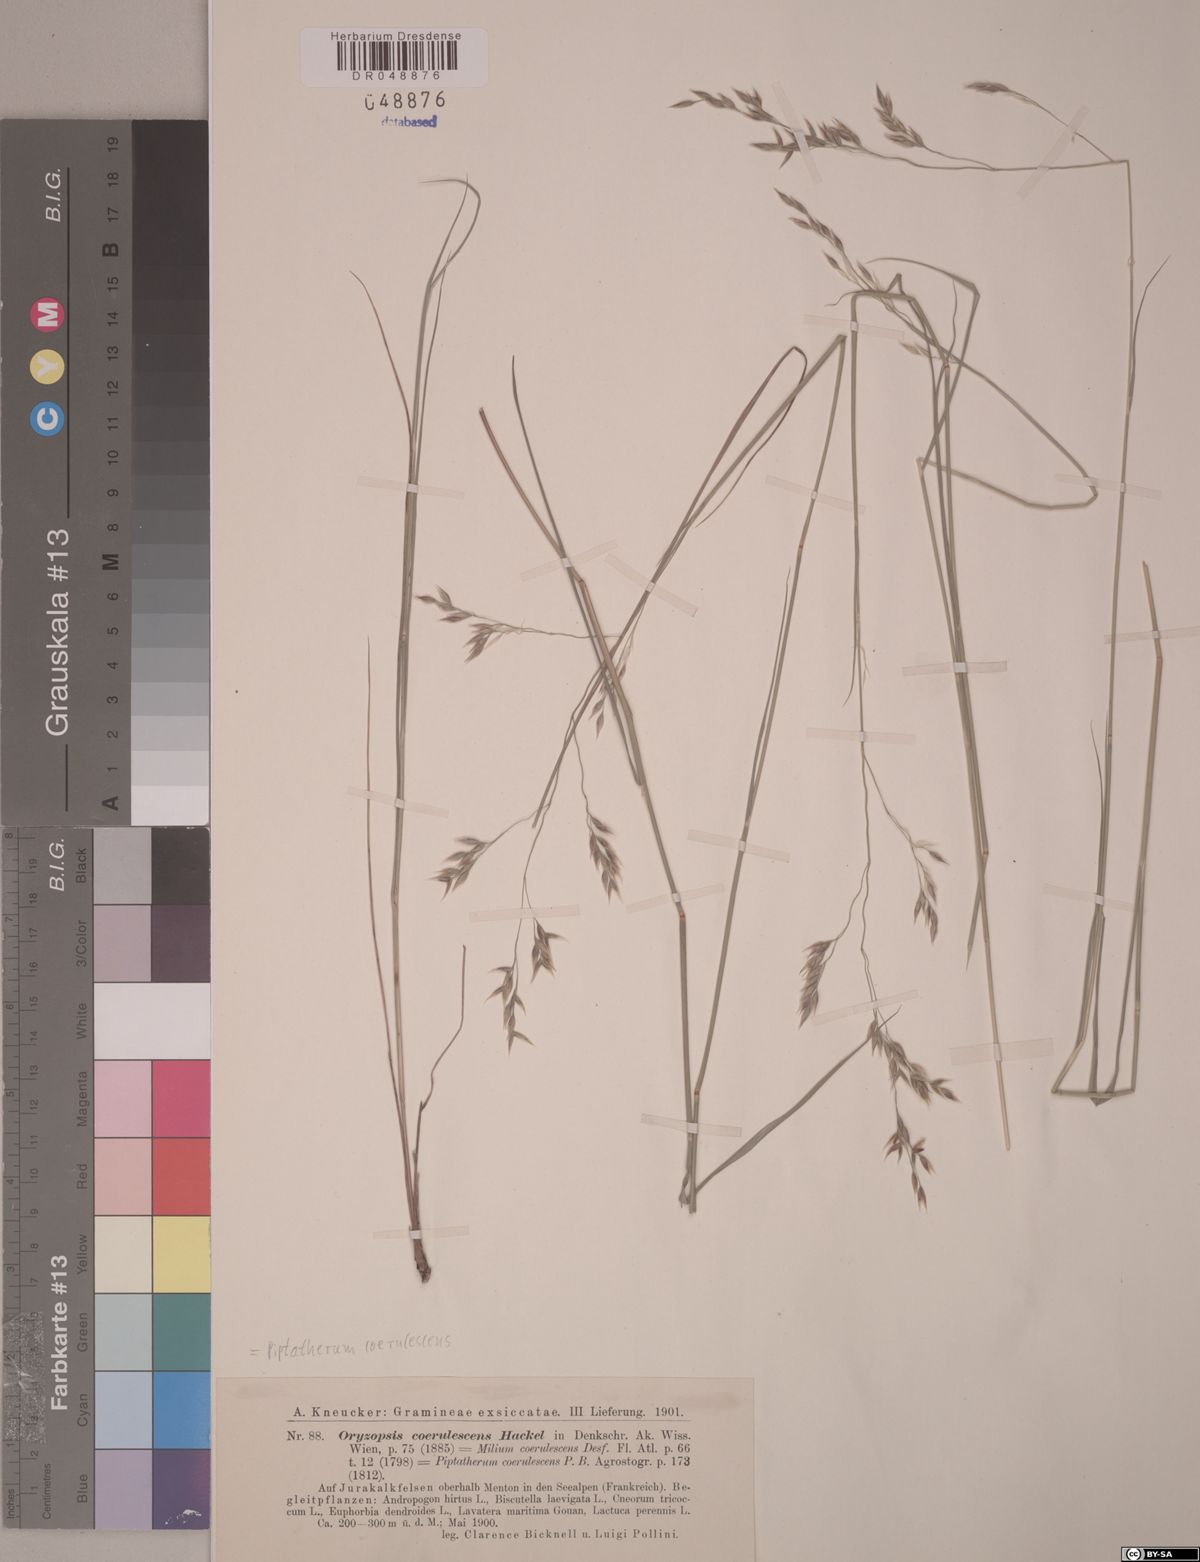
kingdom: Plantae
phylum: Tracheophyta
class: Liliopsida
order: Poales
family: Poaceae
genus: Piptatherum
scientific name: Piptatherum coerulescens
